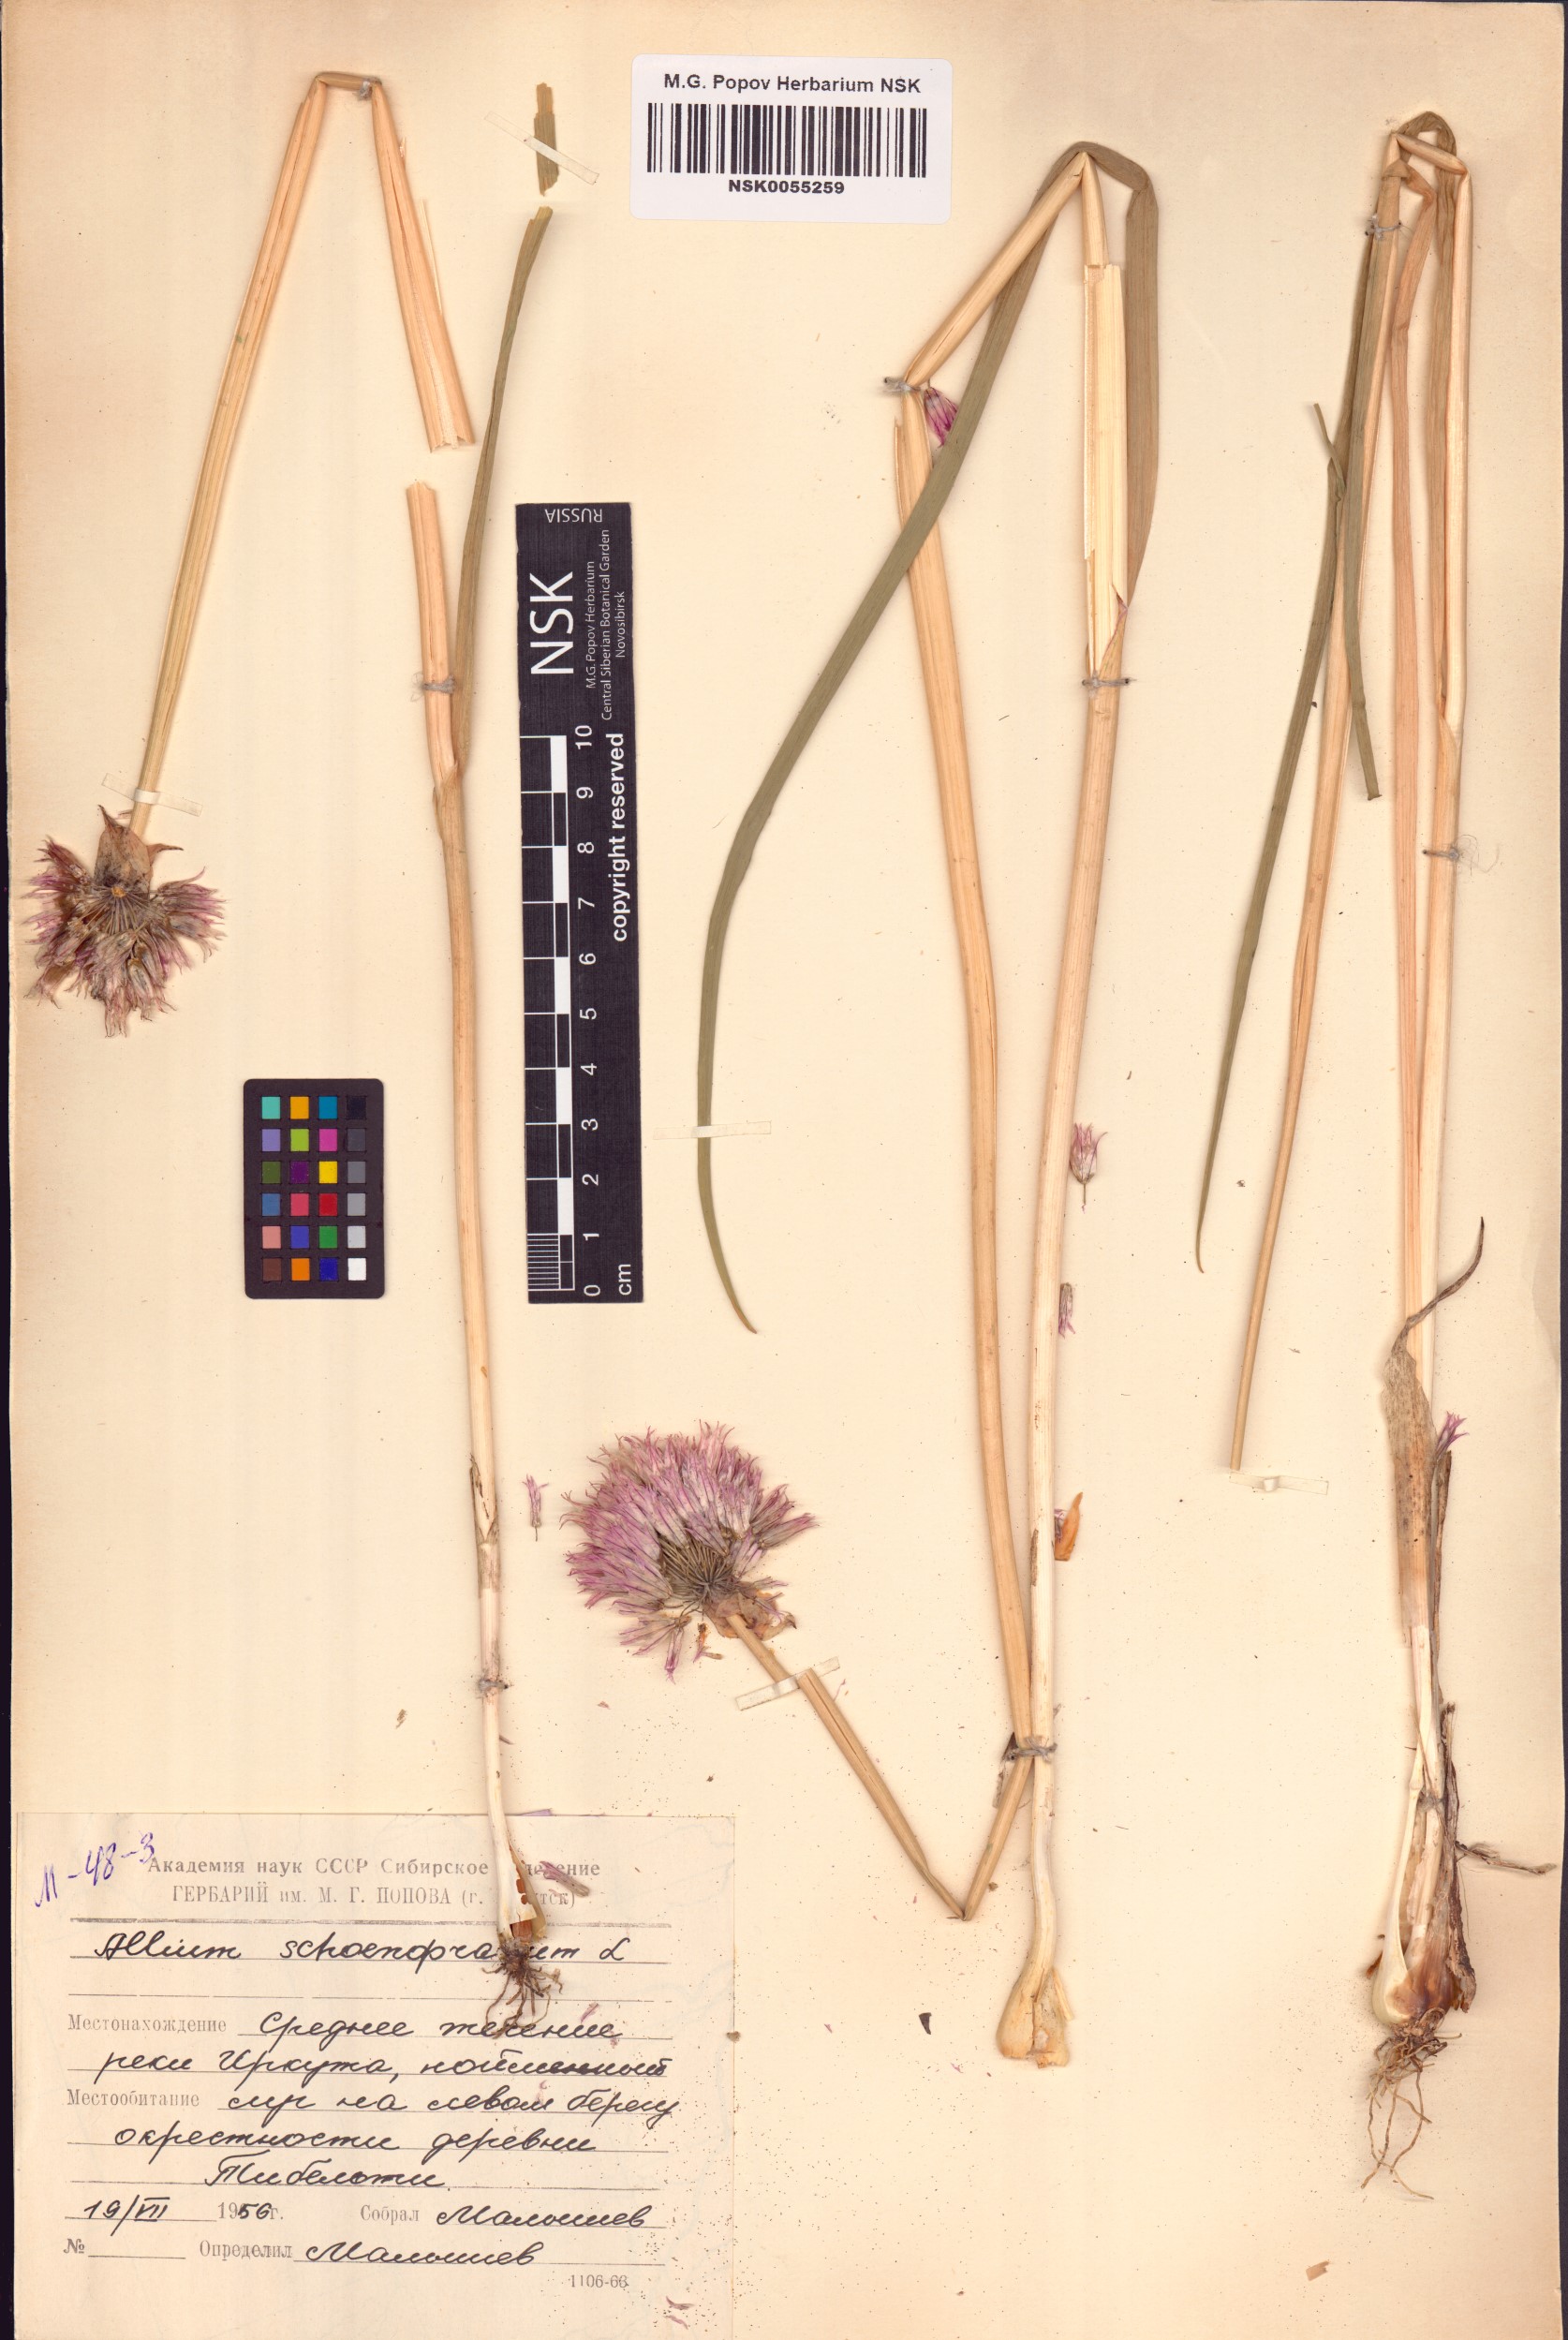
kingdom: Plantae
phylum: Tracheophyta
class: Liliopsida
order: Asparagales
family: Amaryllidaceae
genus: Allium
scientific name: Allium schoenoprasum
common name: Chives
